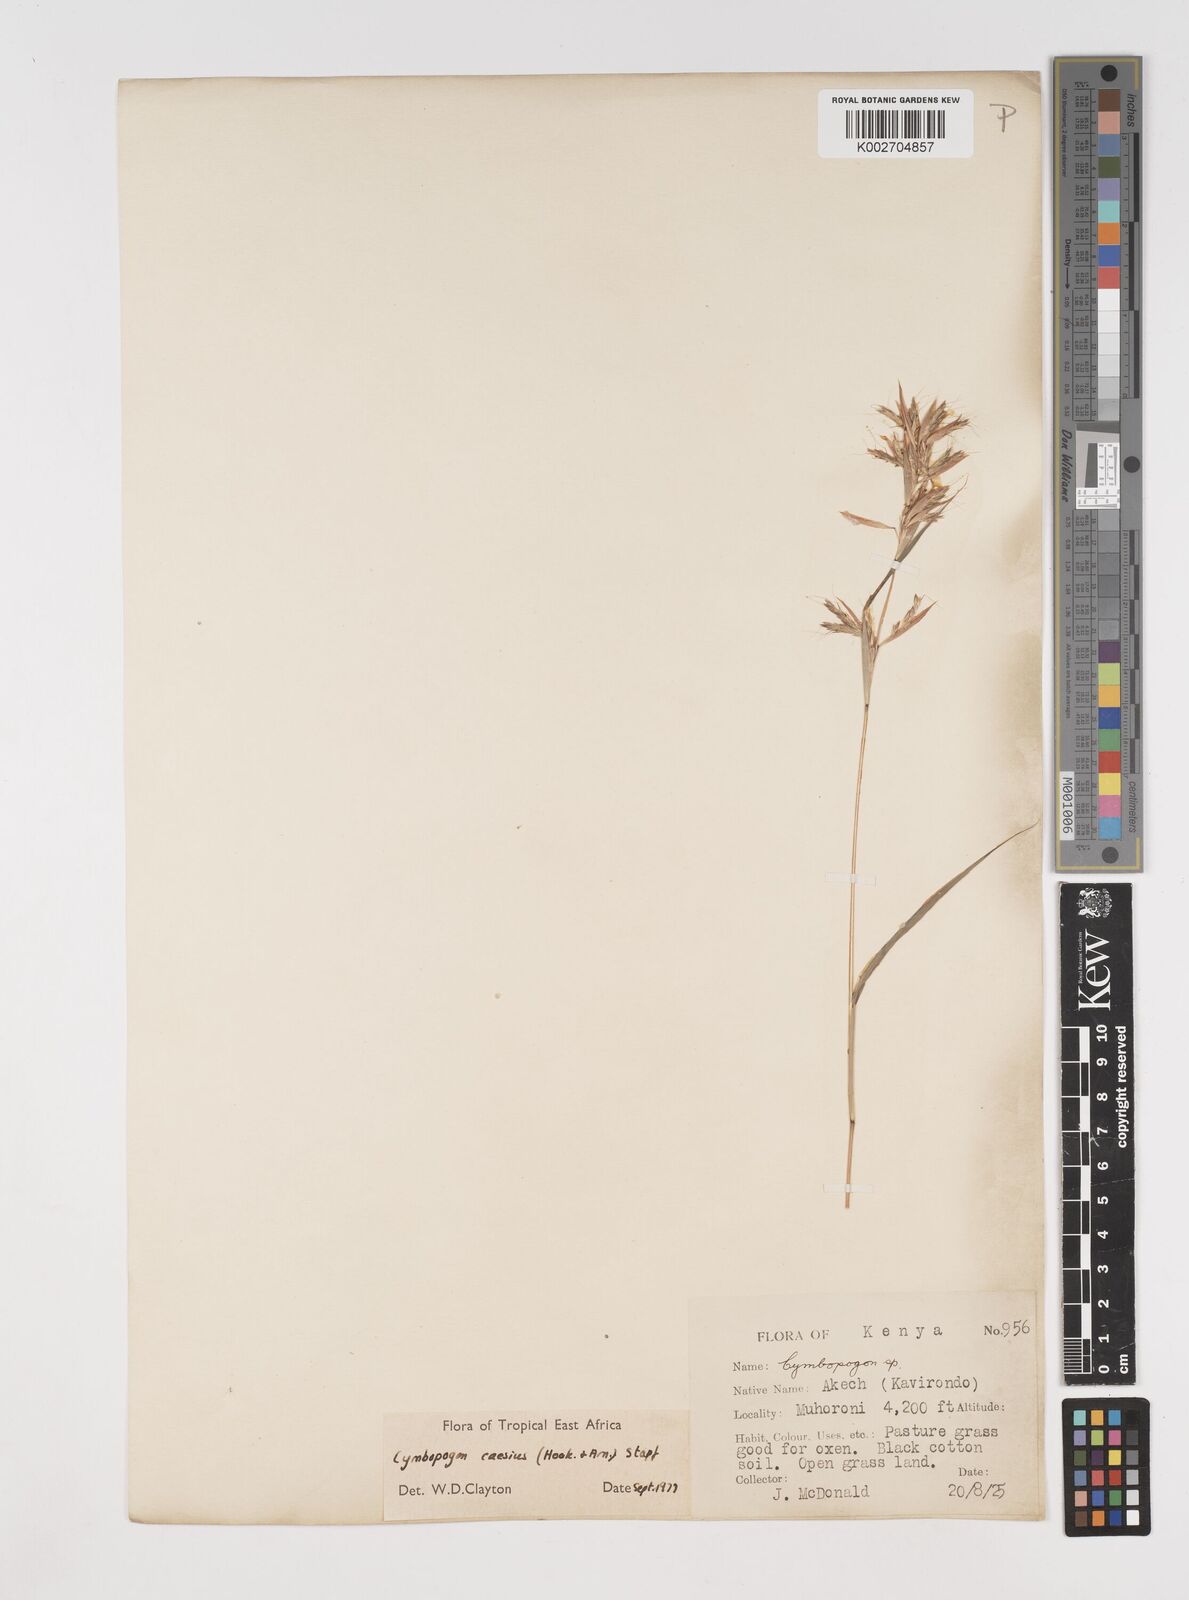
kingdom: Plantae
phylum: Tracheophyta
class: Liliopsida
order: Poales
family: Poaceae
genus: Cymbopogon
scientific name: Cymbopogon caesius
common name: Kachi grass
